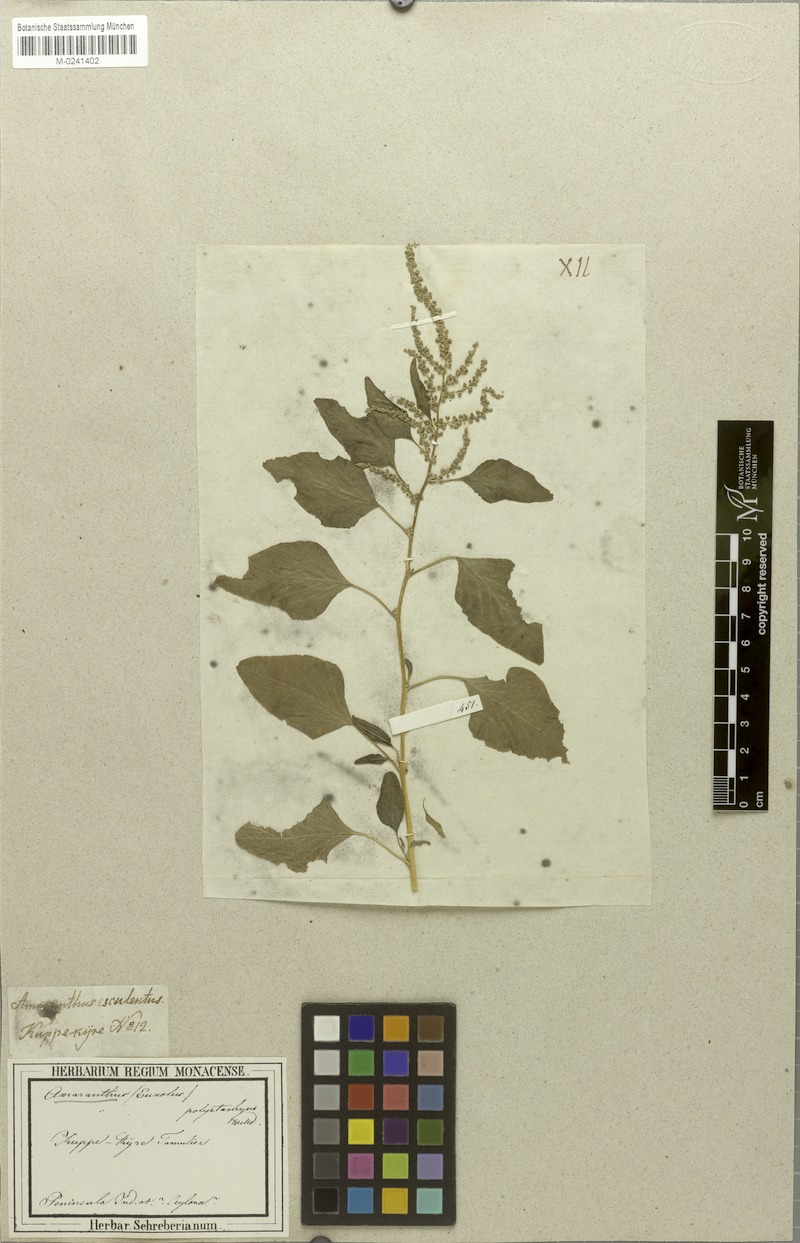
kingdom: Plantae
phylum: Tracheophyta
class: Magnoliopsida
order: Caryophyllales
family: Amaranthaceae
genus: Amaranthus
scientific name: Amaranthus blitum
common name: Purple amaranth
